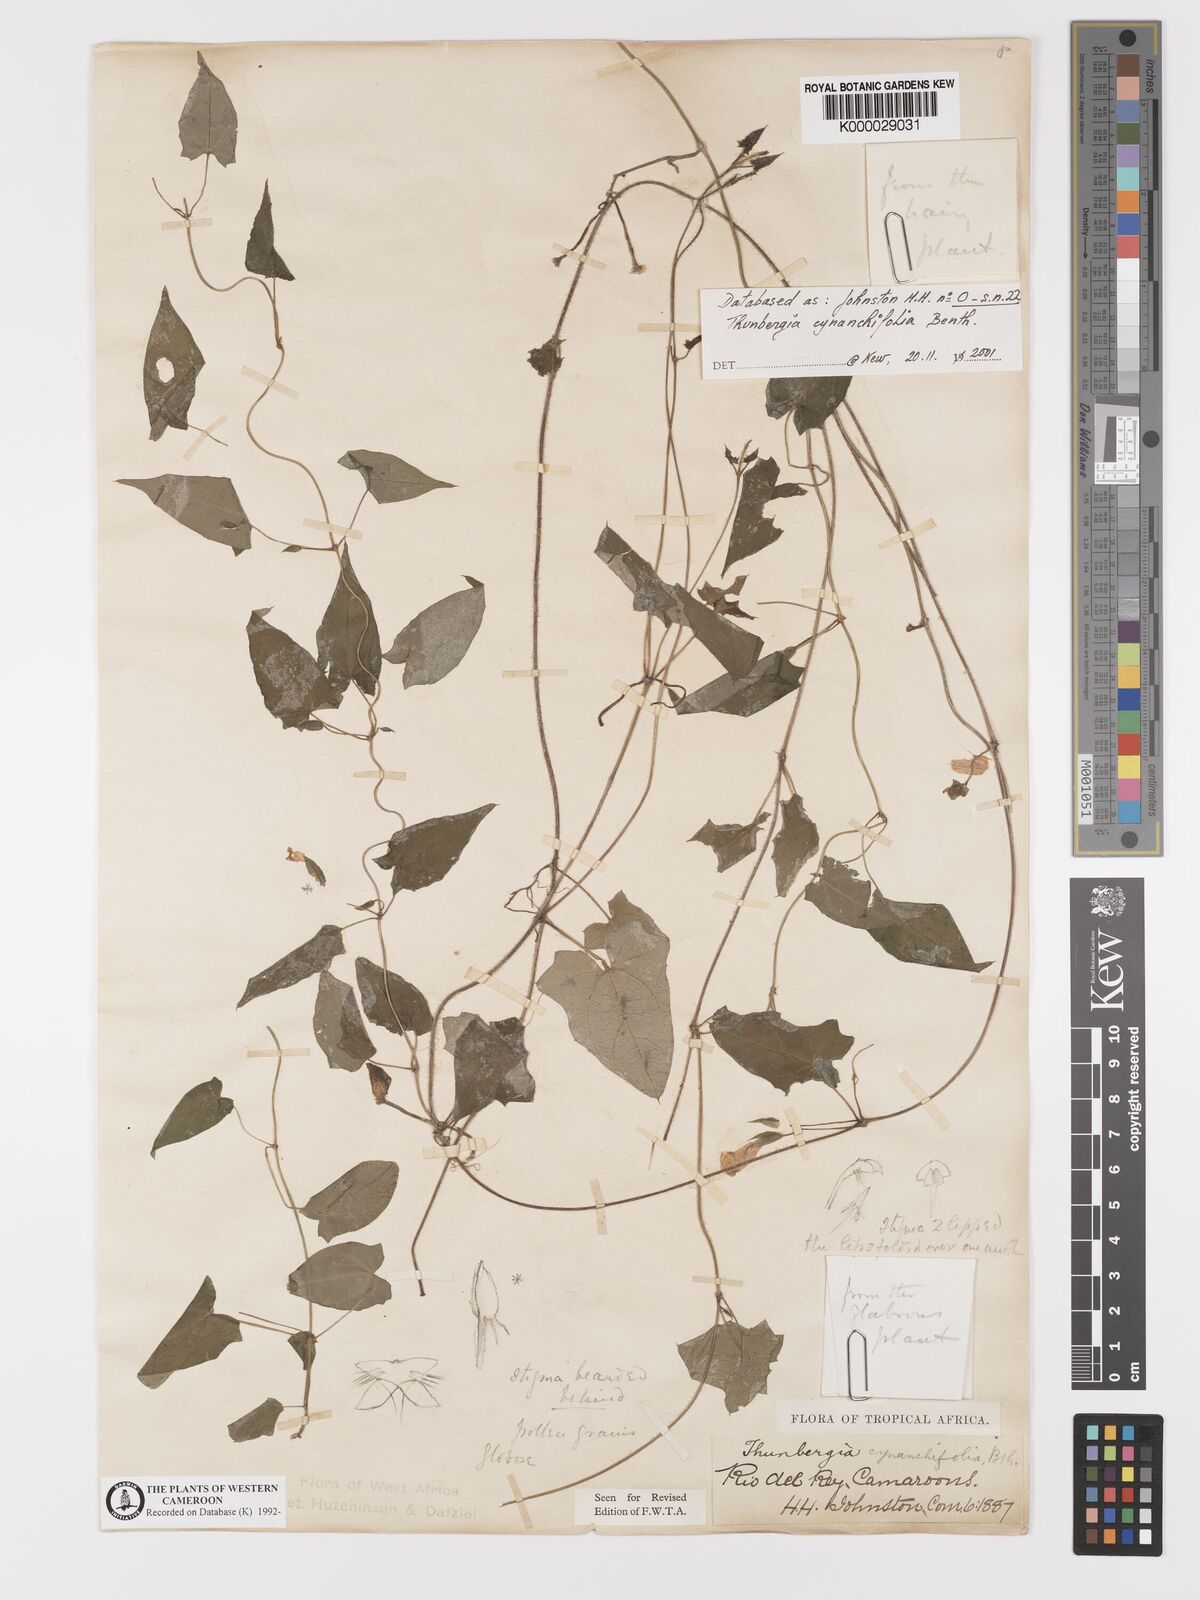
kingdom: Plantae
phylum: Tracheophyta
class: Magnoliopsida
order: Lamiales
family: Acanthaceae
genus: Thunbergia
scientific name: Thunbergia cynanchifolia
